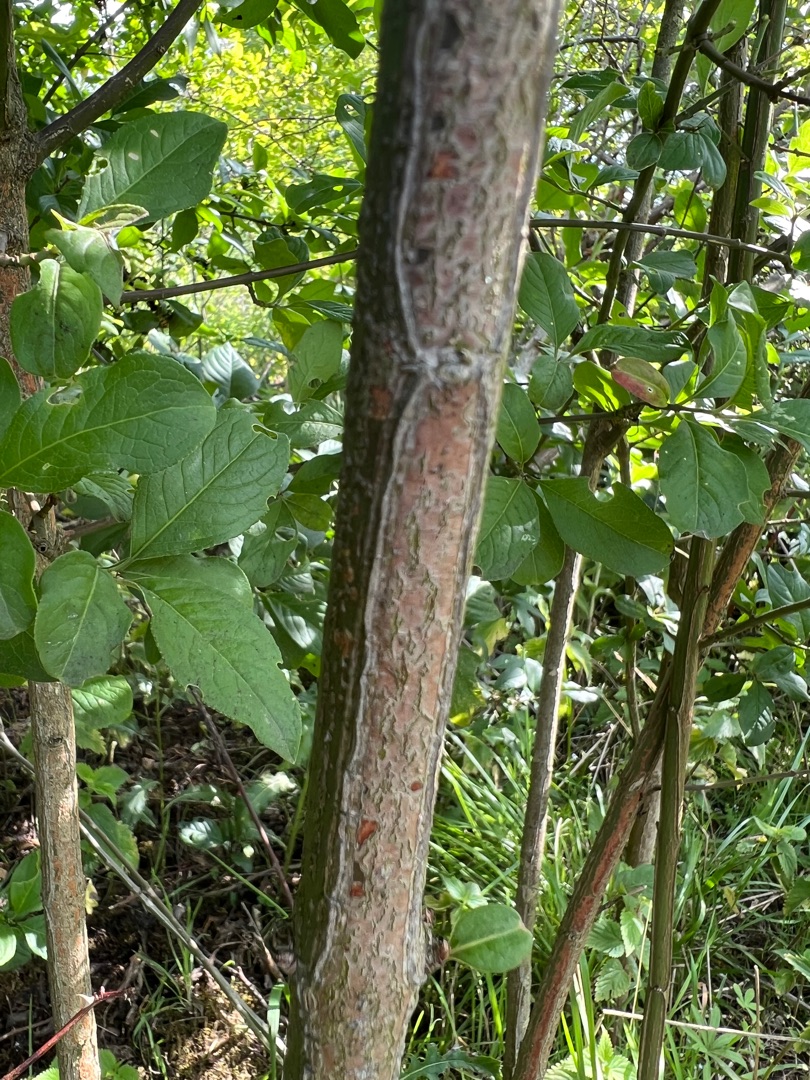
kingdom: Plantae
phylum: Tracheophyta
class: Magnoliopsida
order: Celastrales
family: Celastraceae
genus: Euonymus
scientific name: Euonymus europaeus
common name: Benved
